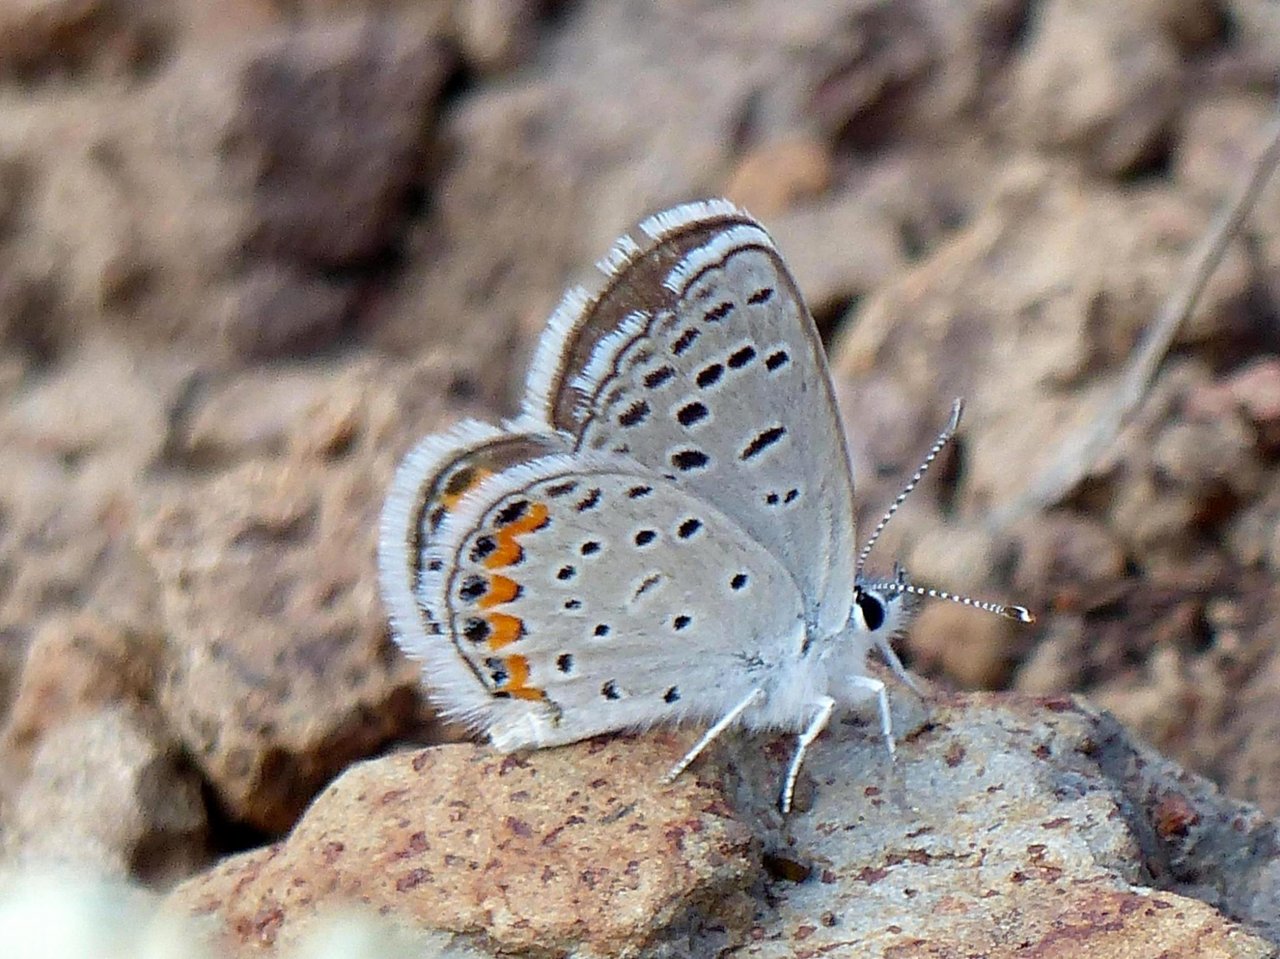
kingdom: Animalia
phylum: Arthropoda
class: Insecta
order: Lepidoptera
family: Lycaenidae
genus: Plebejus
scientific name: Plebejus acmon
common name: Acmon Blue
